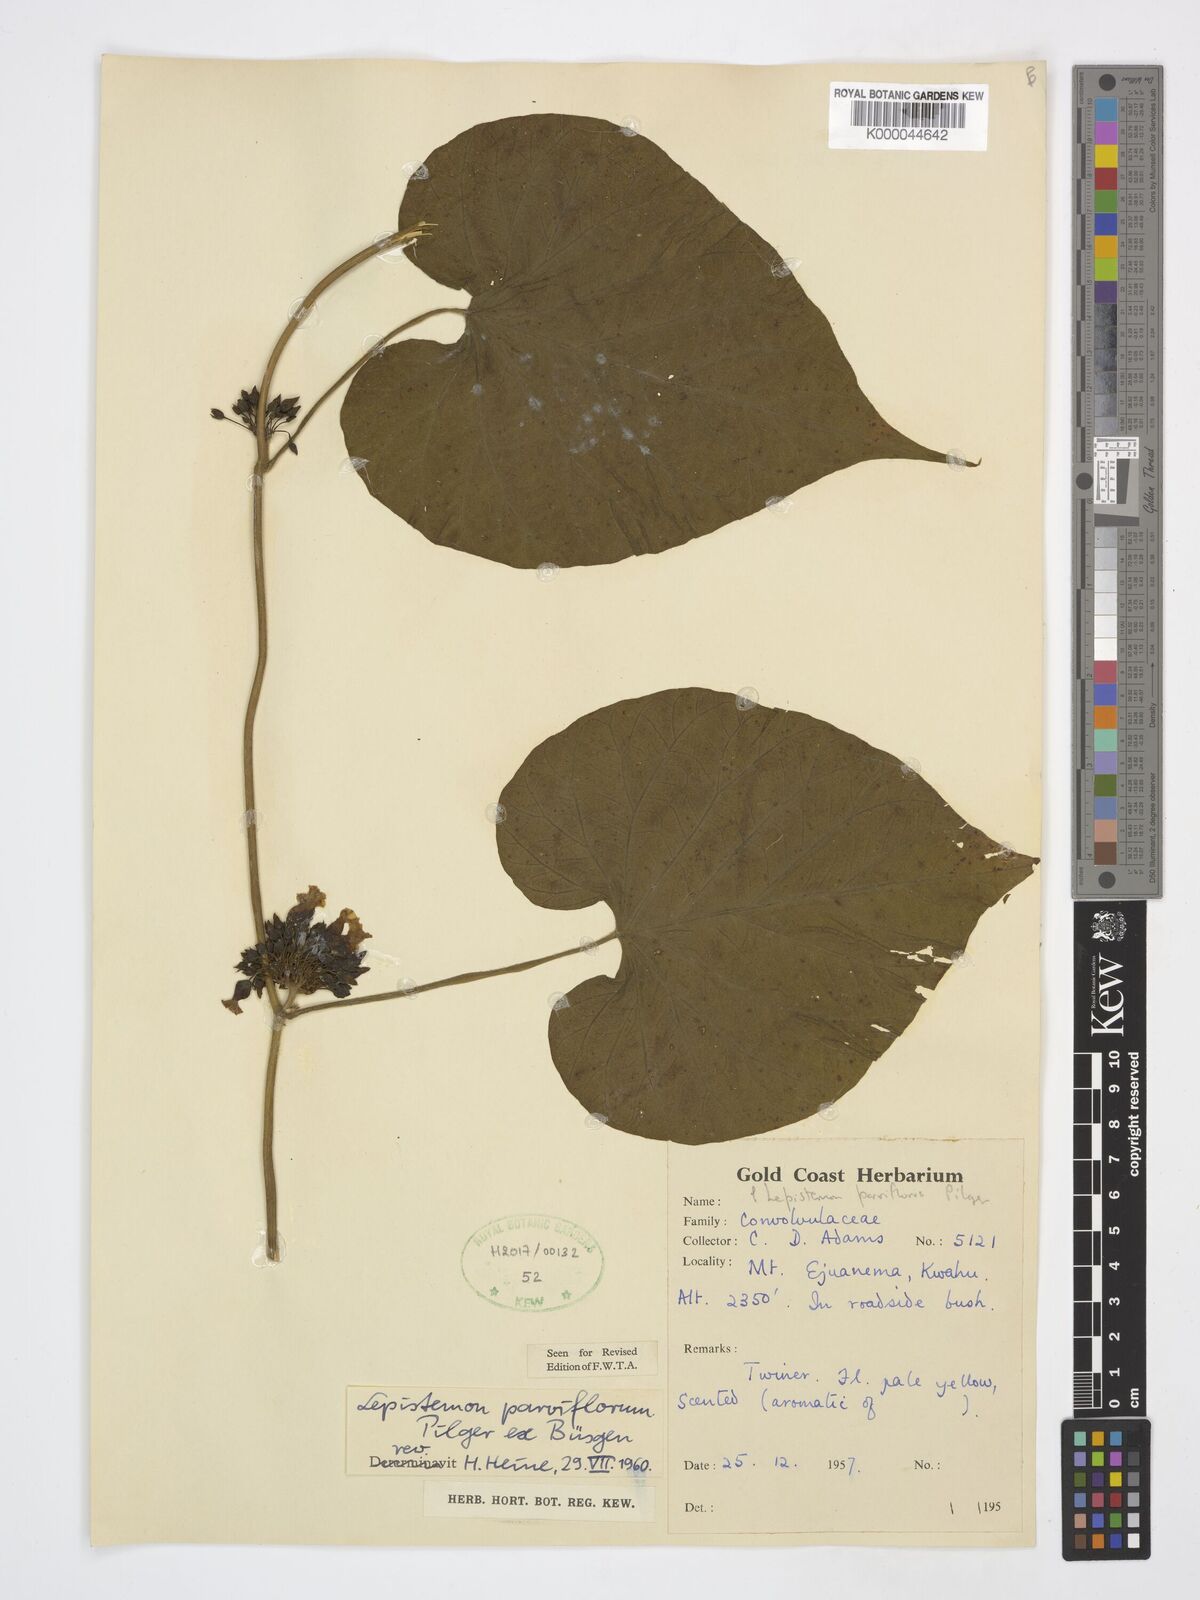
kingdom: Plantae
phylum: Tracheophyta
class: Magnoliopsida
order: Solanales
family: Convolvulaceae
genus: Lepistemon
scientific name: Lepistemon
